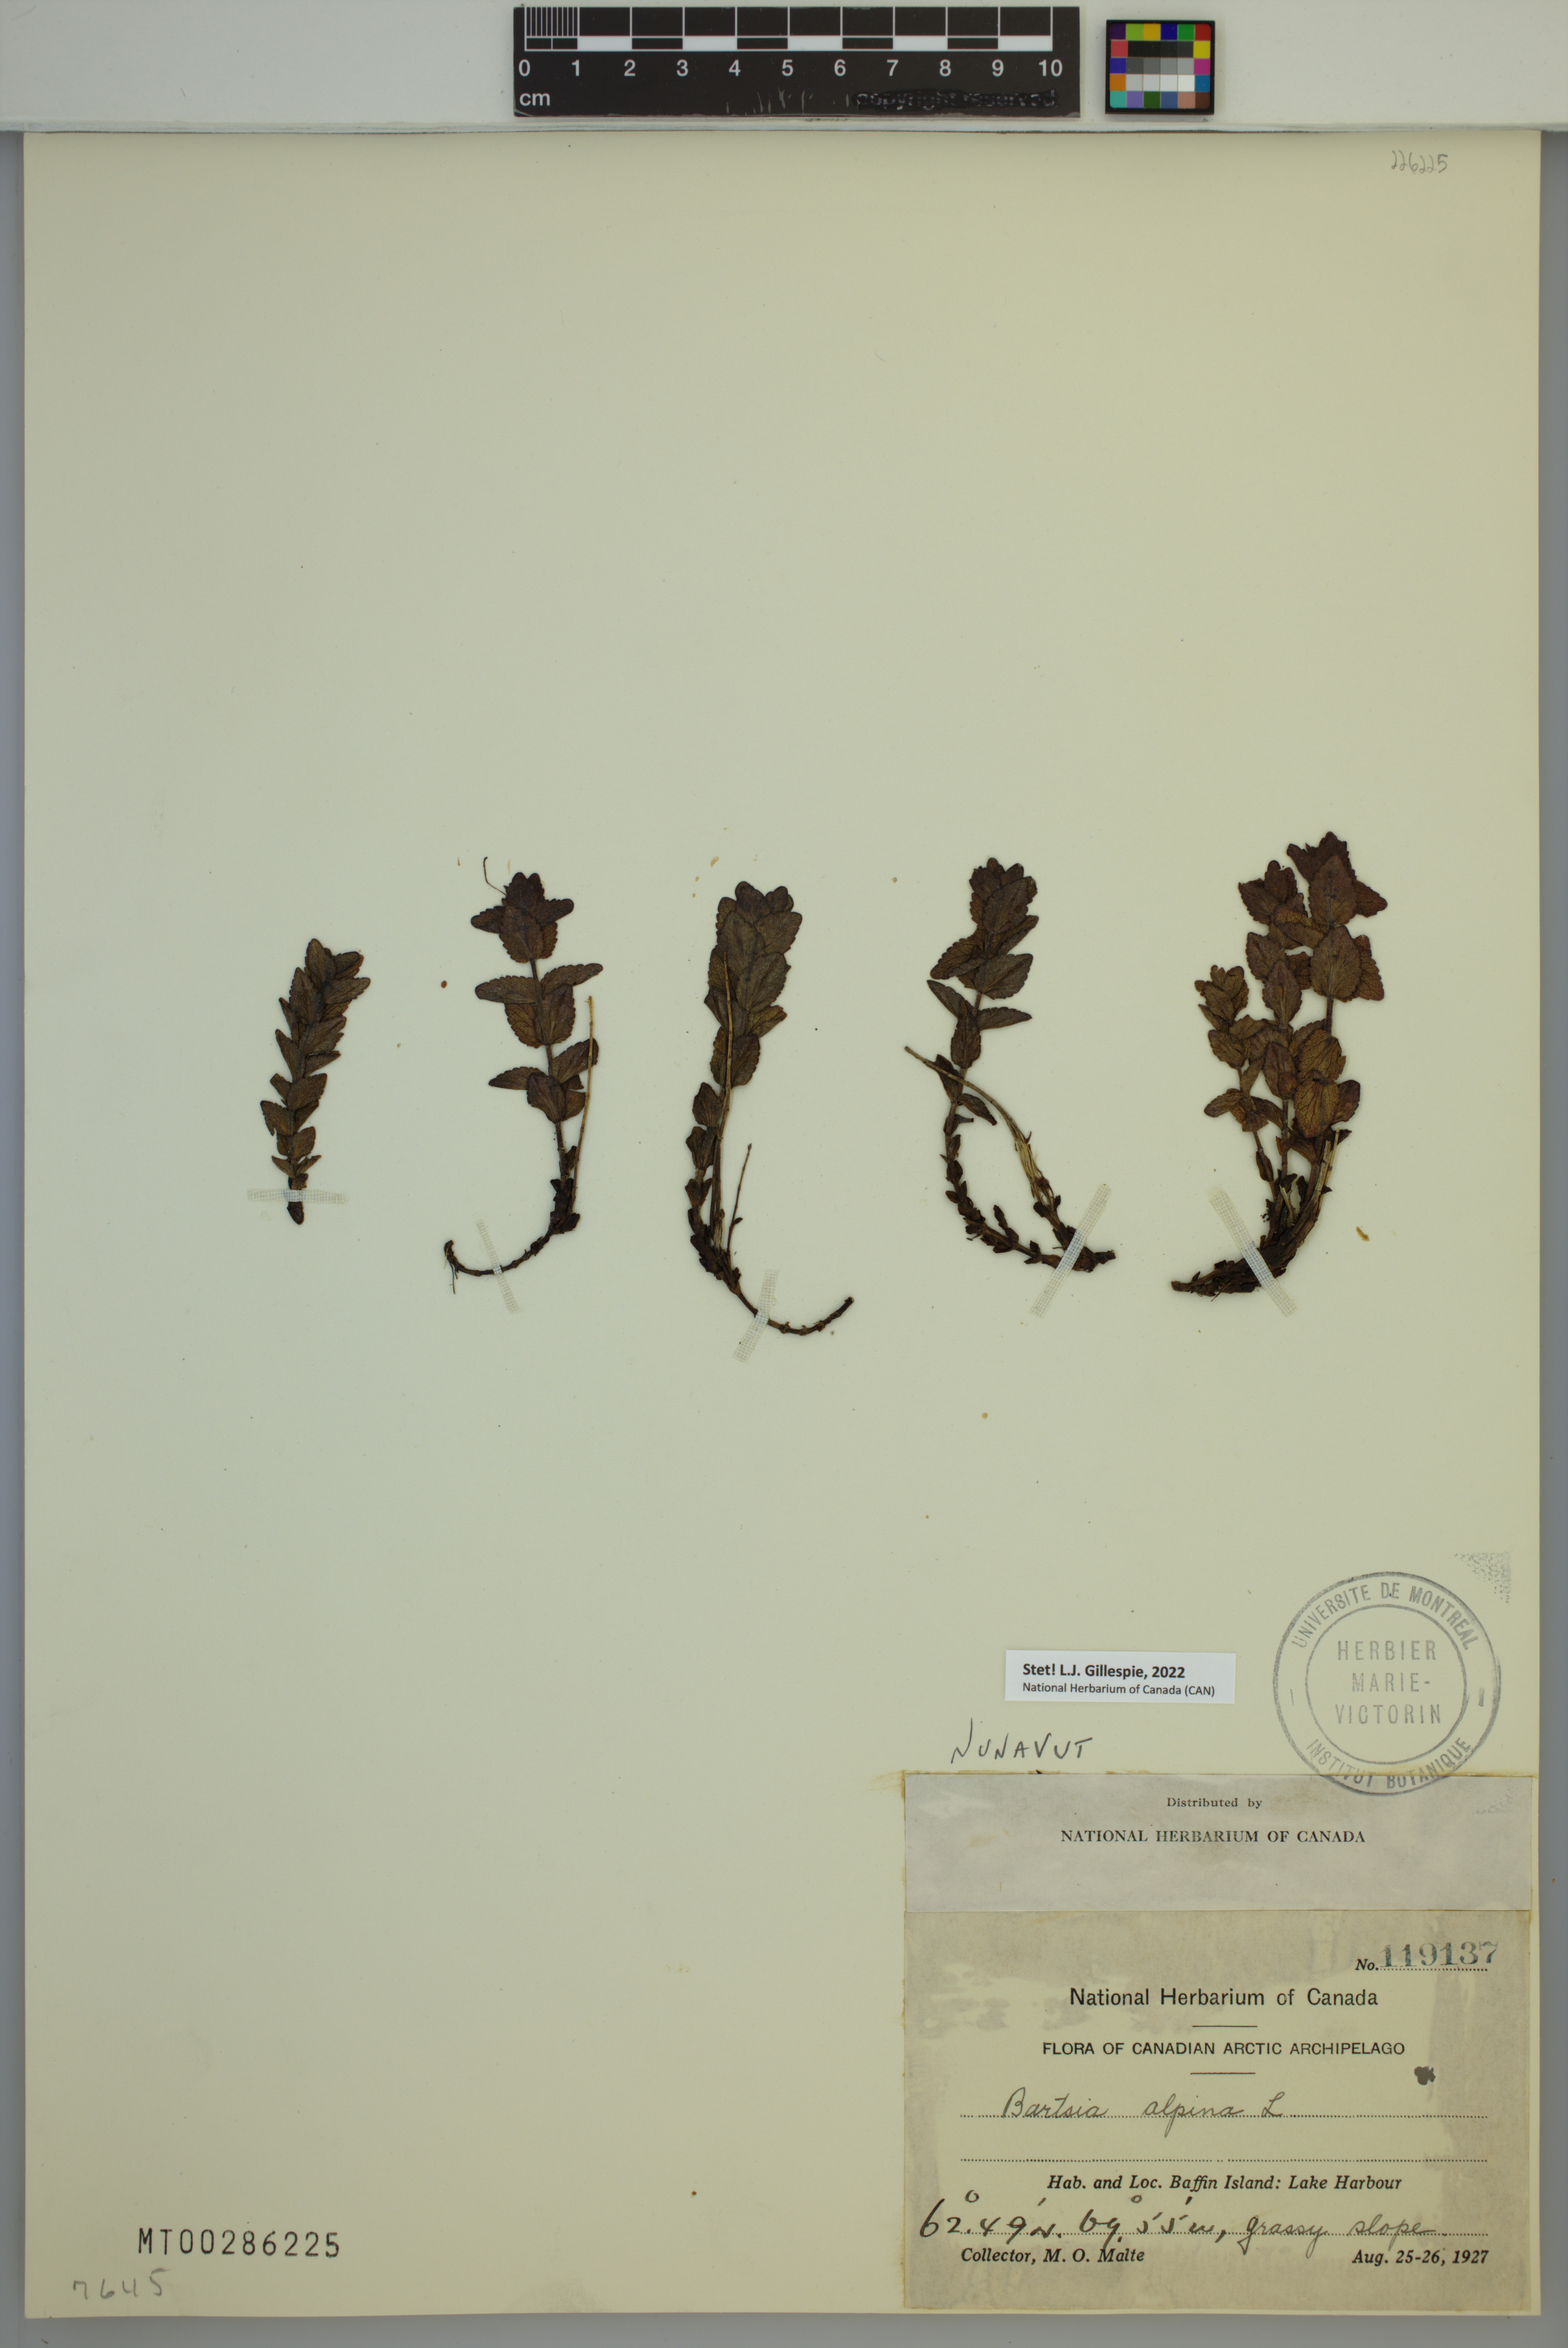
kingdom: Plantae
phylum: Tracheophyta
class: Magnoliopsida
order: Lamiales
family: Orobanchaceae
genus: Bartsia
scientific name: Bartsia alpina
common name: Alpine bartsia
